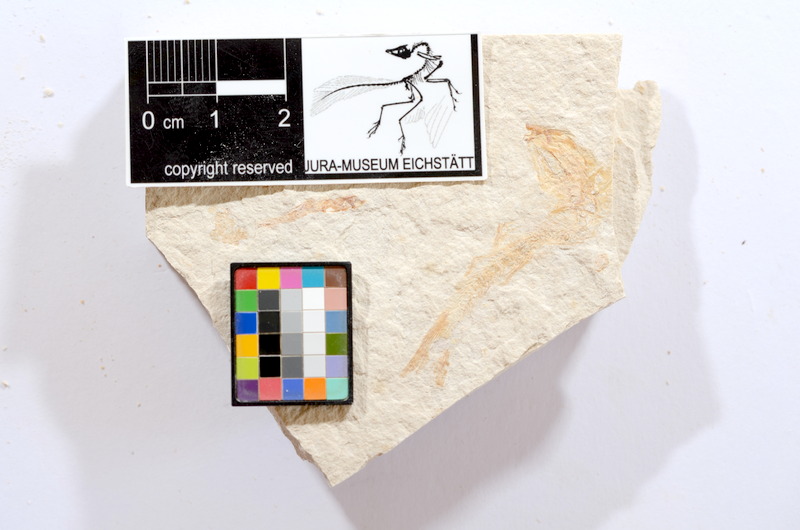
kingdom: Animalia
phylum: Chordata
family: Ascalaboidae
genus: Tharsis
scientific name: Tharsis dubius
